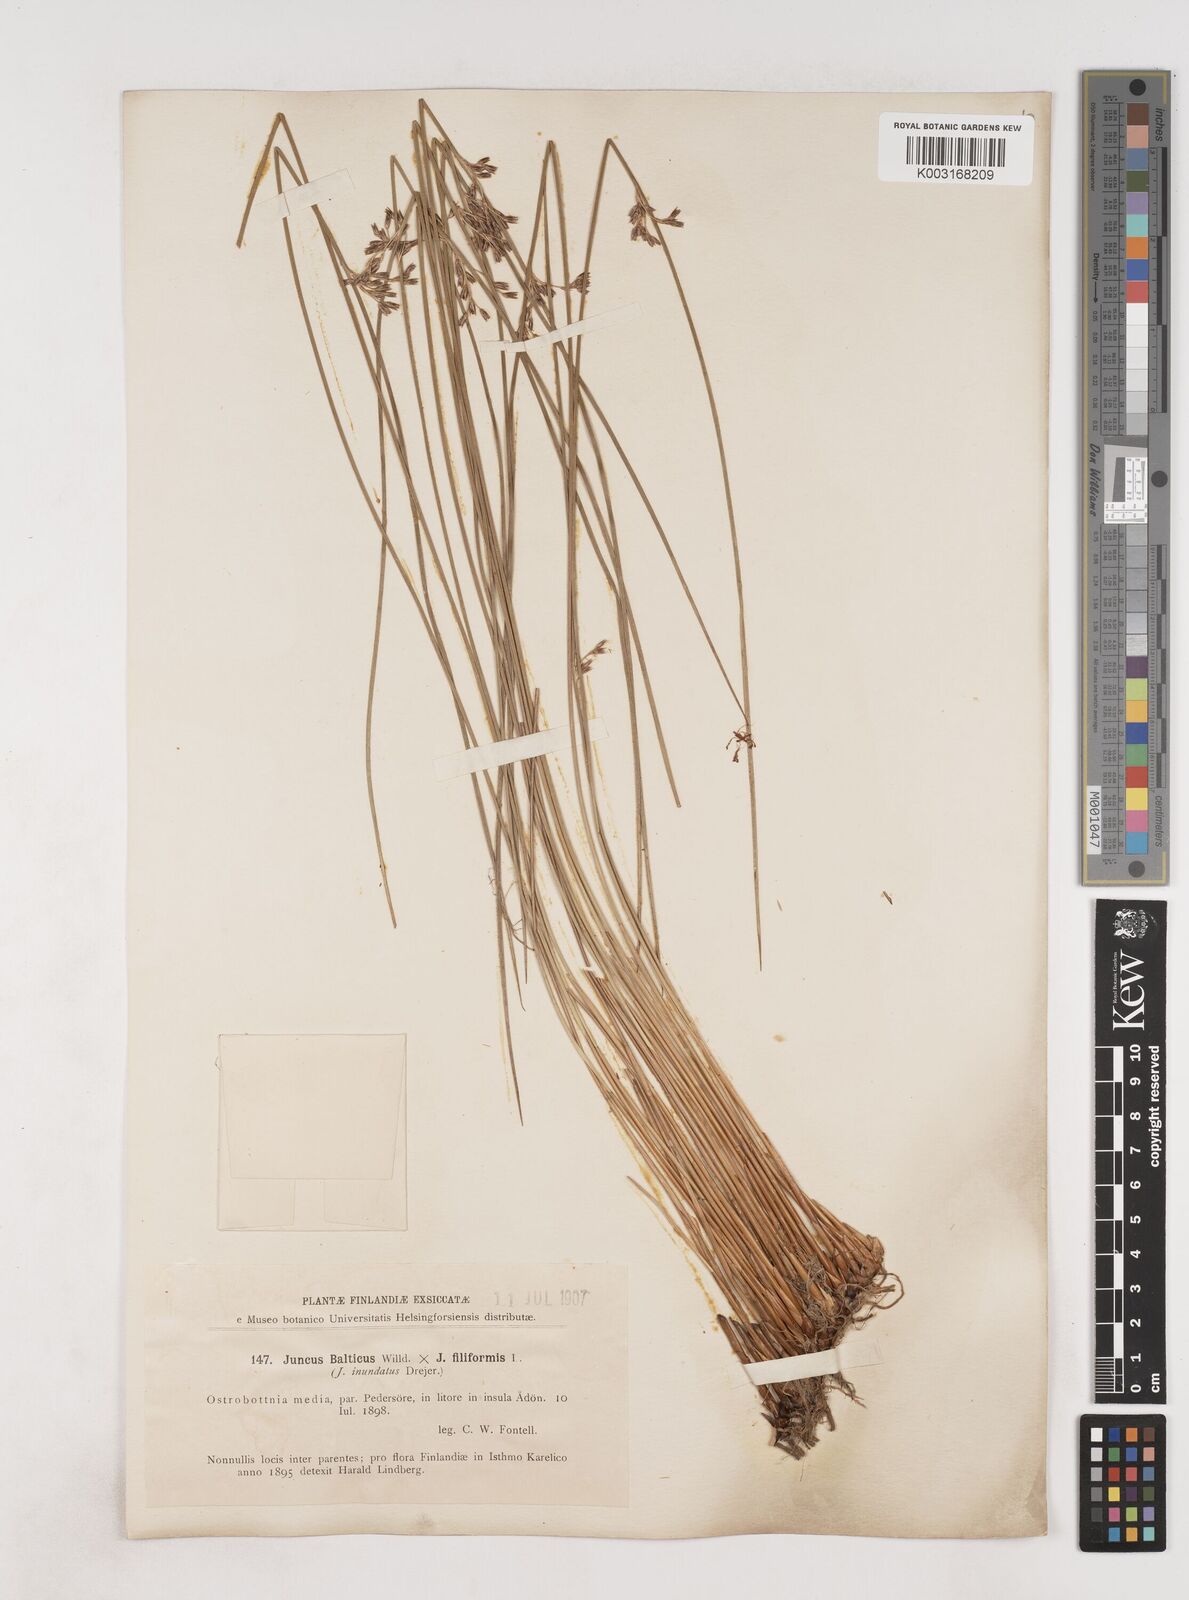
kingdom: Plantae
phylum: Tracheophyta
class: Liliopsida
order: Poales
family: Juncaceae
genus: Juncus
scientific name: Juncus balticus
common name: Baltic rush
